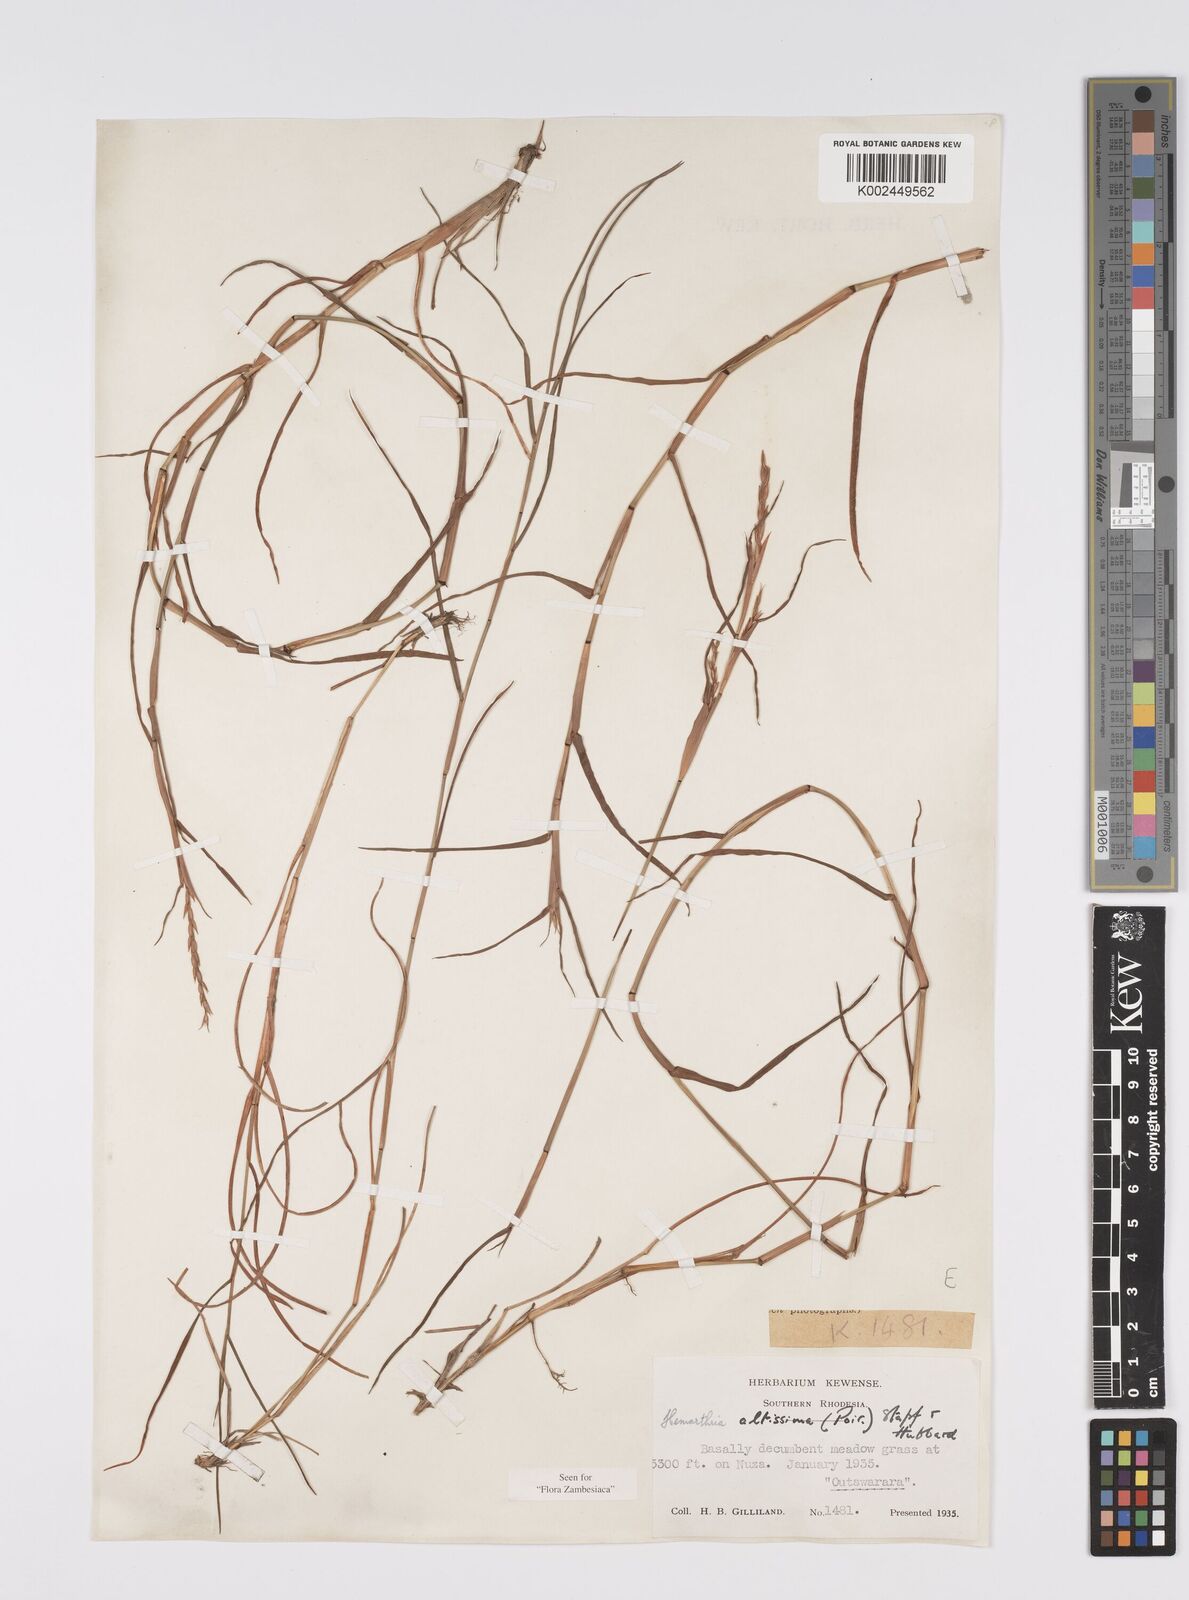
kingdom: Plantae
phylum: Tracheophyta
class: Liliopsida
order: Poales
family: Poaceae
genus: Hemarthria
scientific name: Hemarthria altissima
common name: African jointgrass
